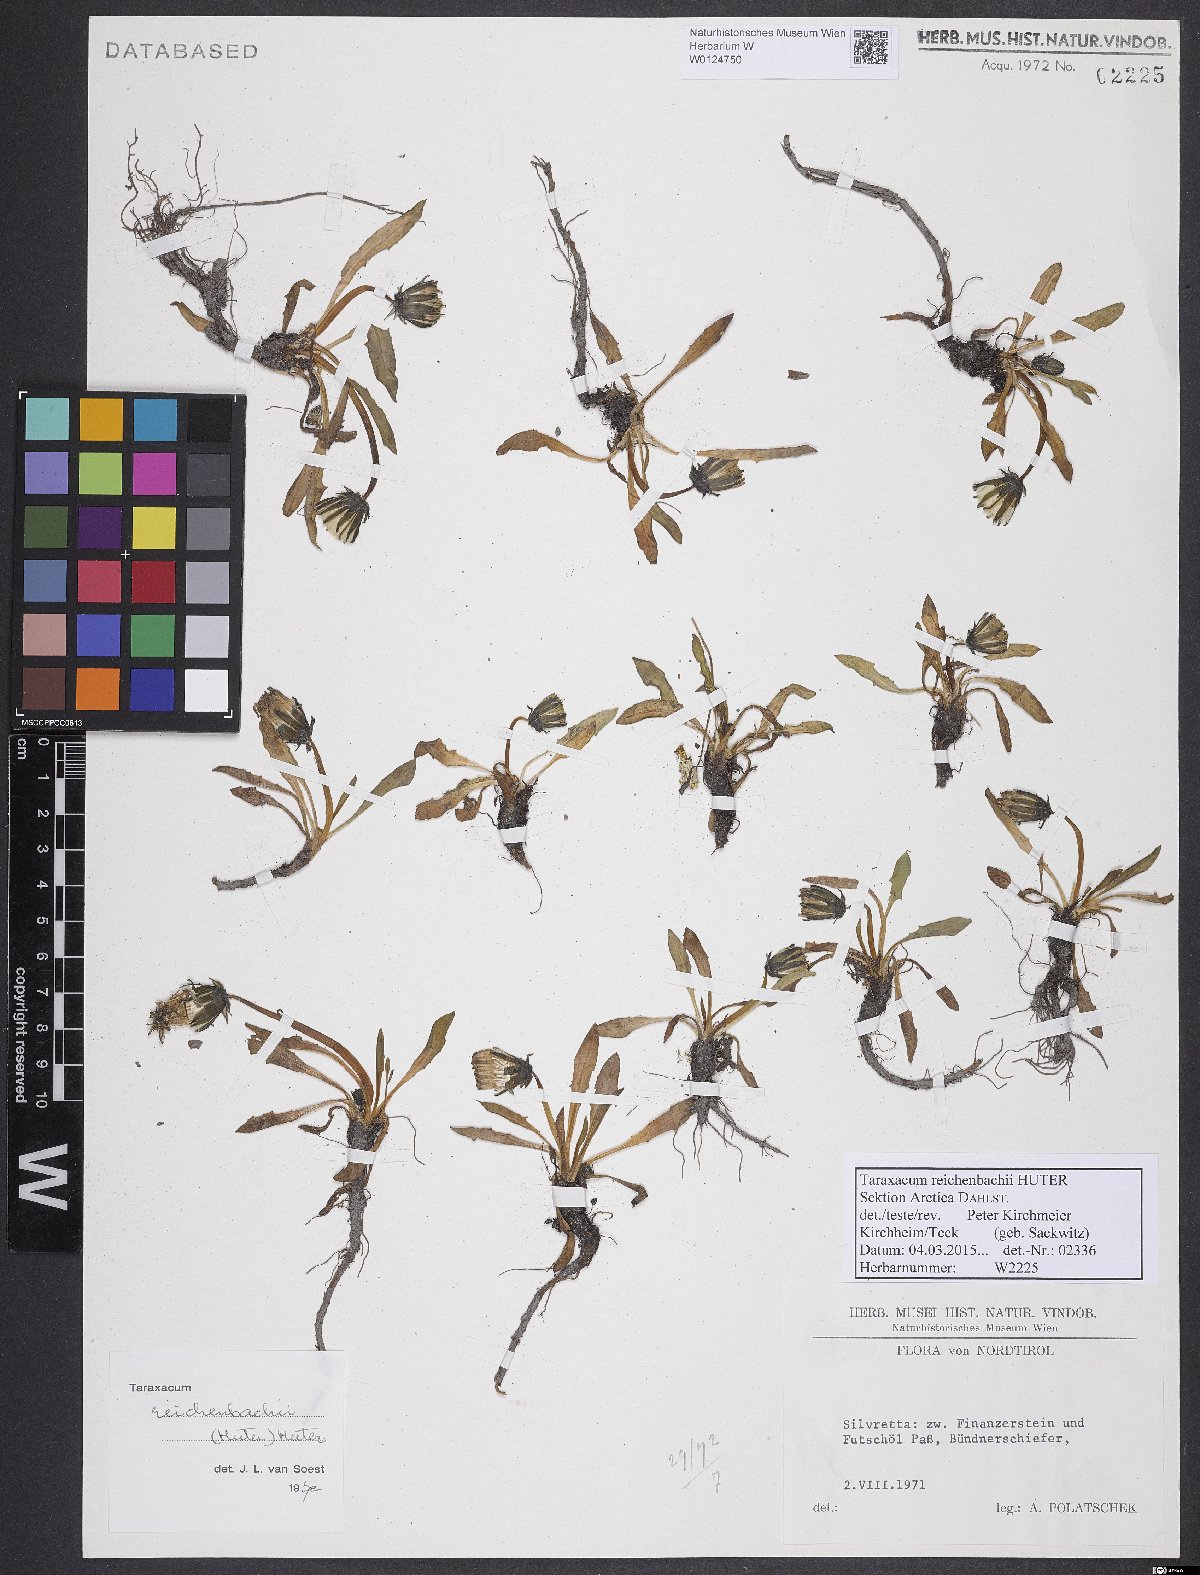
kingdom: Plantae
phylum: Tracheophyta
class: Magnoliopsida
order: Asterales
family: Asteraceae
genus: Taraxacum
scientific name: Taraxacum reichenbachii
